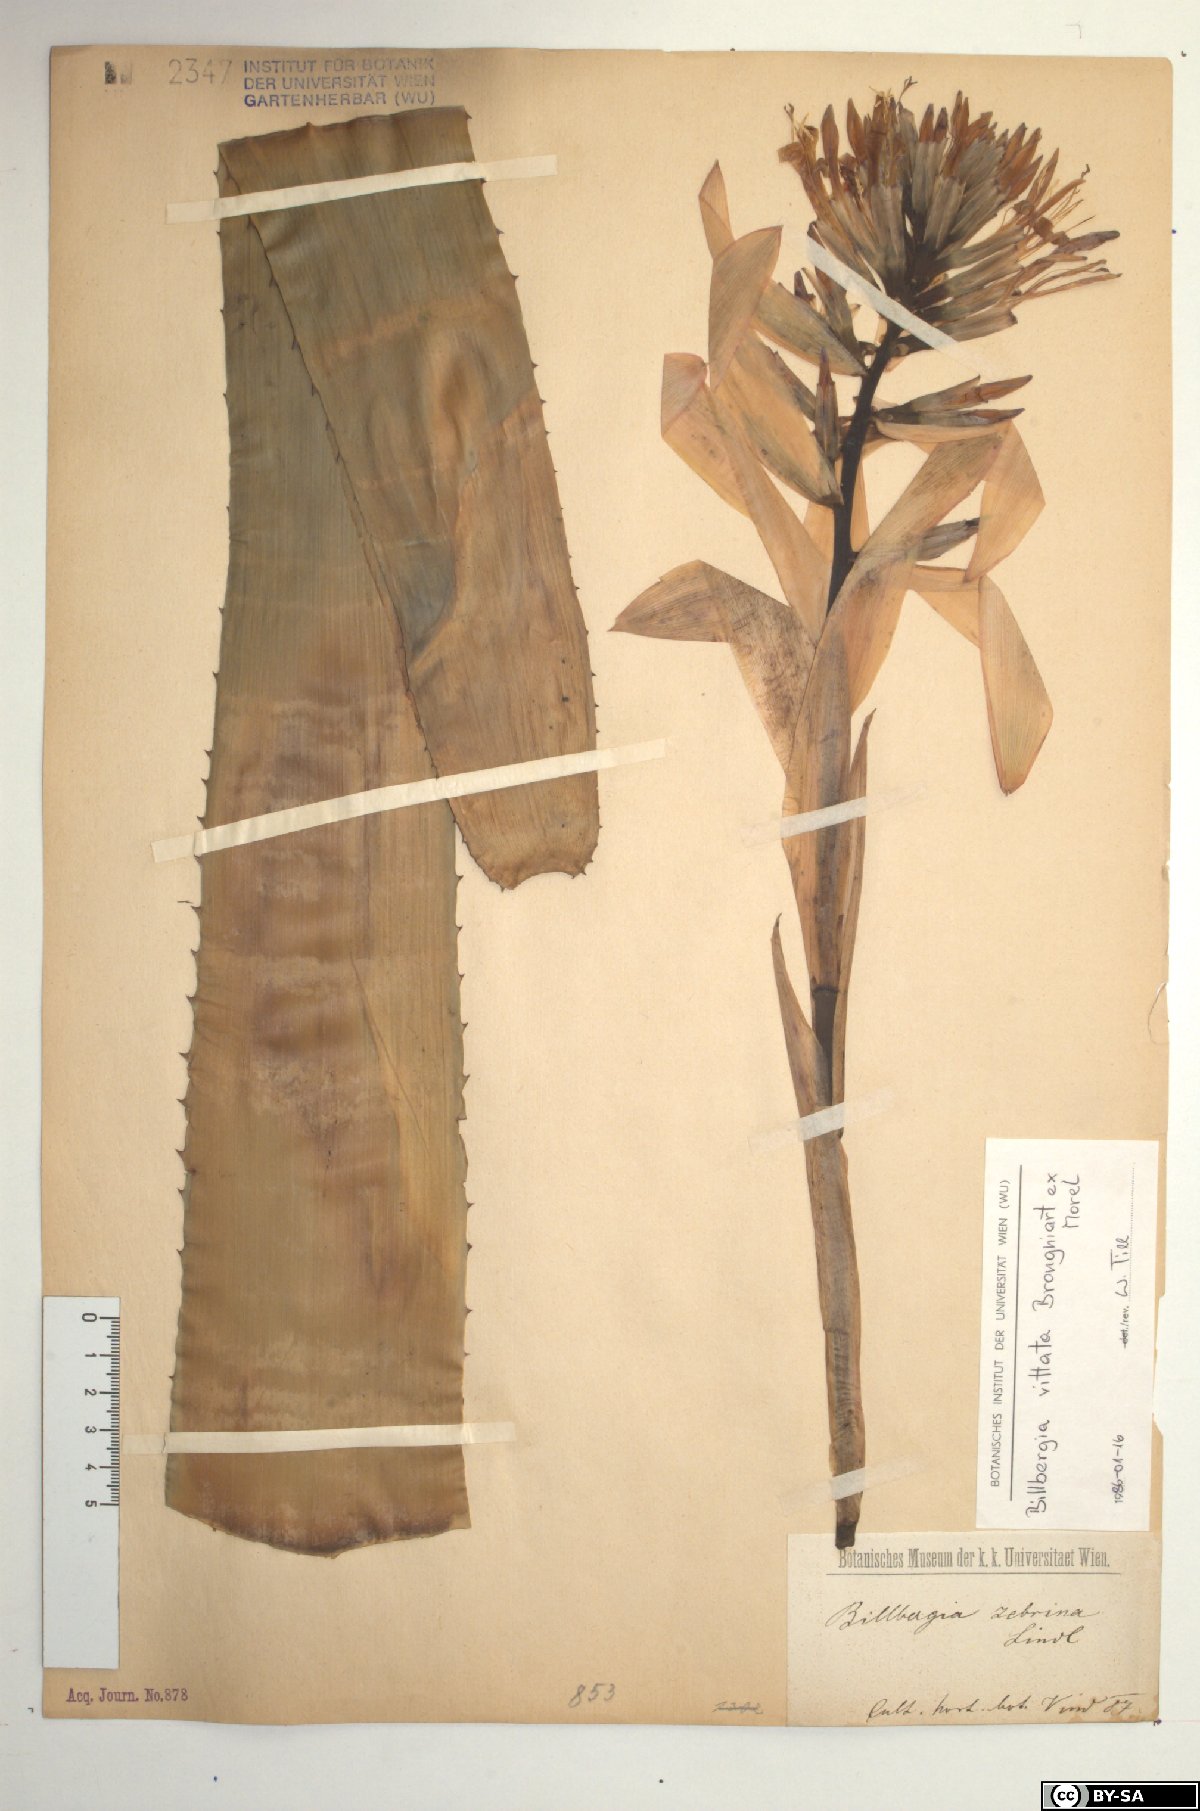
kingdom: Plantae
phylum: Tracheophyta
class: Liliopsida
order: Poales
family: Bromeliaceae
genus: Billbergia
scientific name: Billbergia vittata
